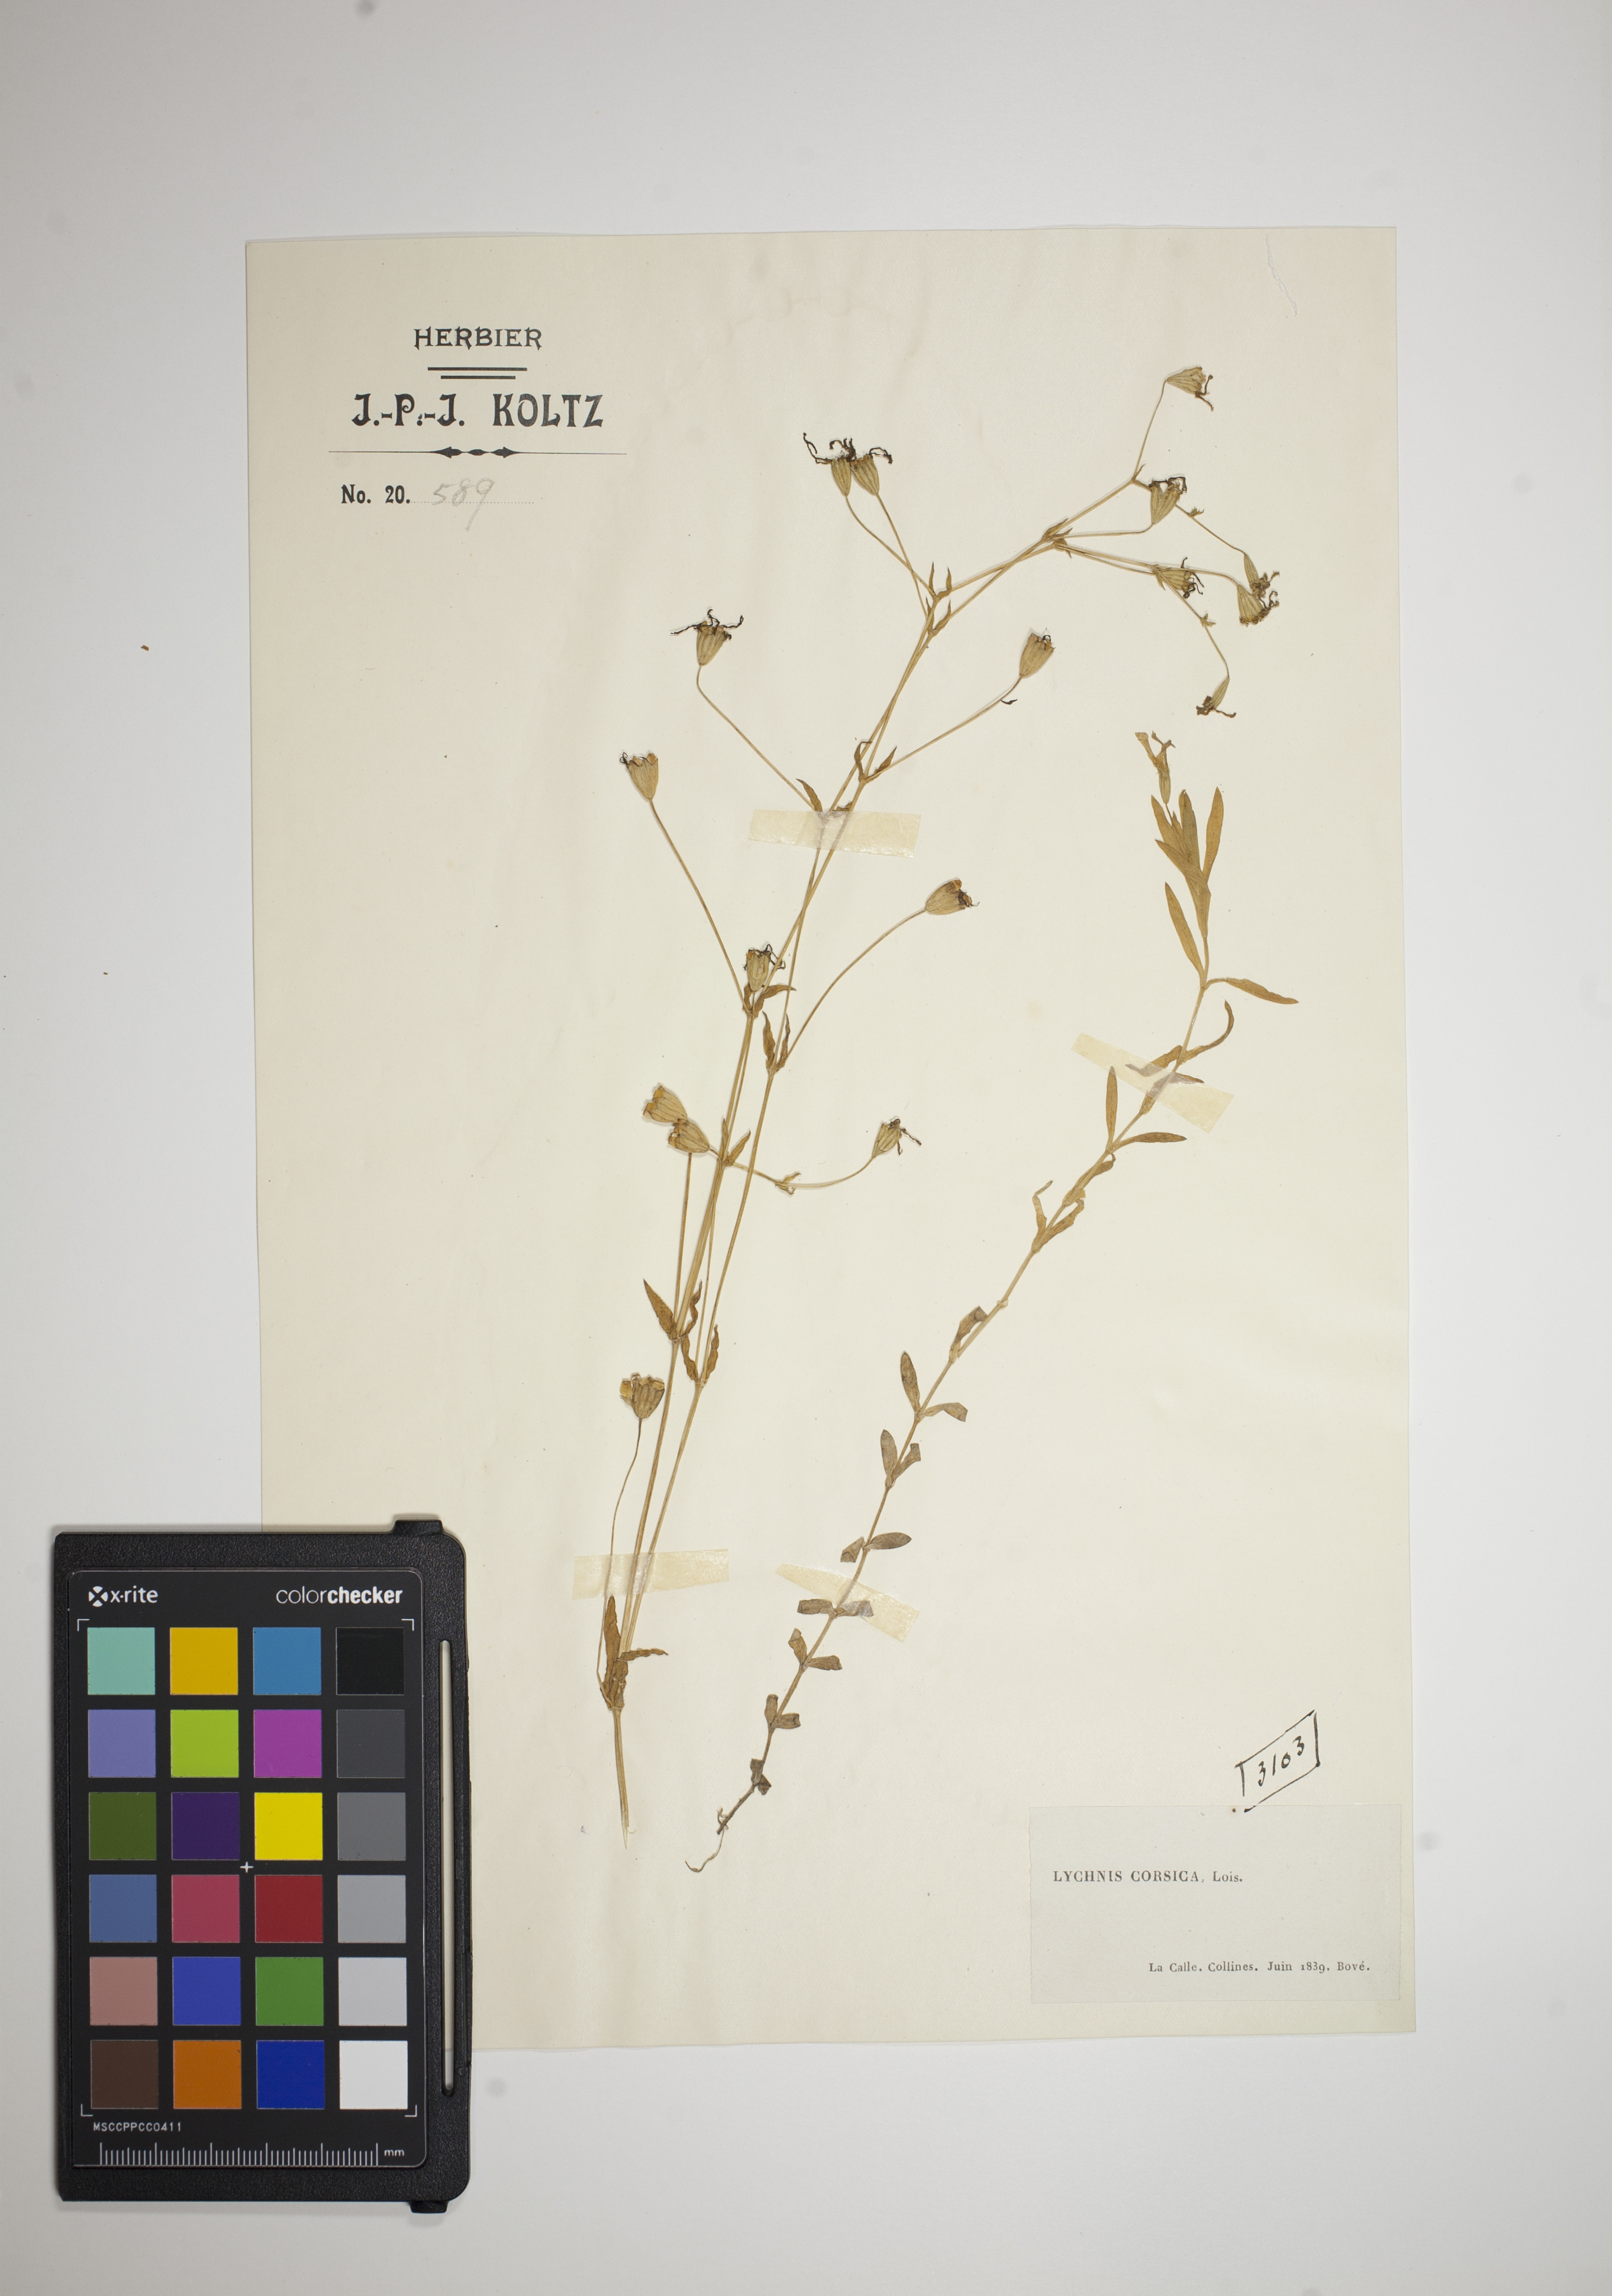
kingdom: Plantae
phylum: Tracheophyta
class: Magnoliopsida
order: Caryophyllales
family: Caryophyllaceae
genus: Eudianthe
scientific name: Eudianthe laeta
